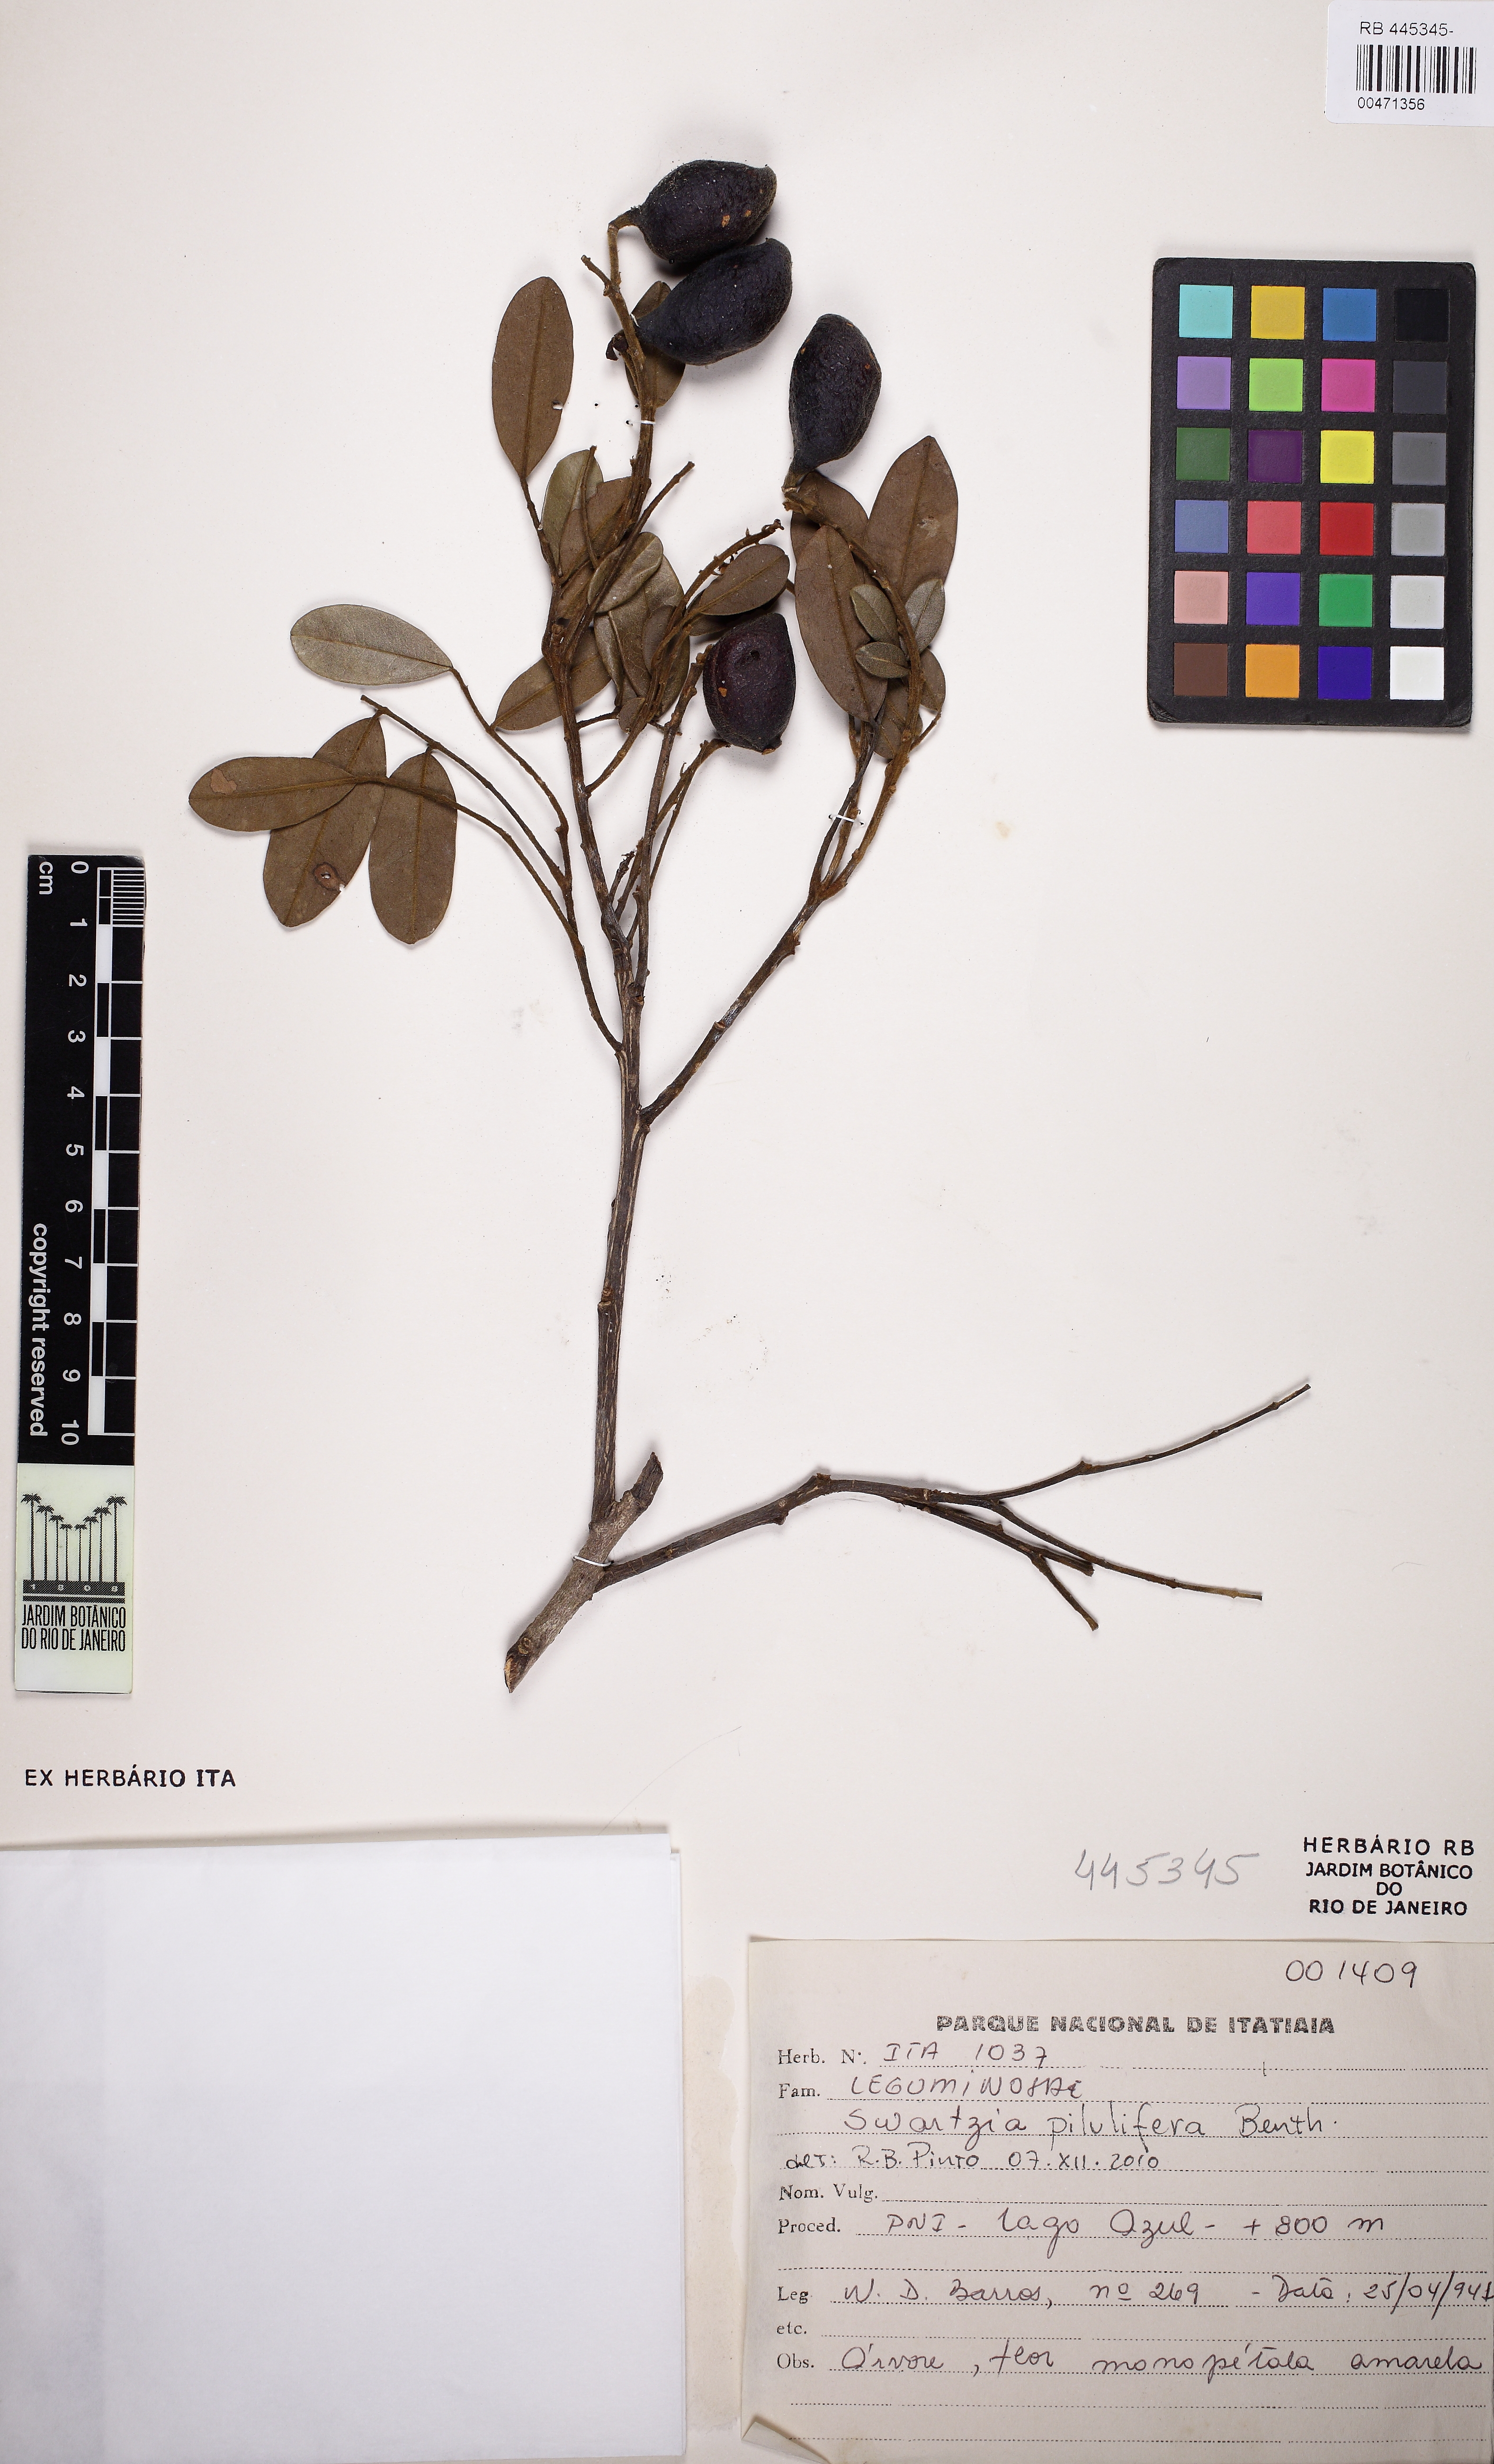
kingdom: Plantae
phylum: Tracheophyta
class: Magnoliopsida
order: Fabales
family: Fabaceae
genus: Swartzia
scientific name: Swartzia pilulifera
